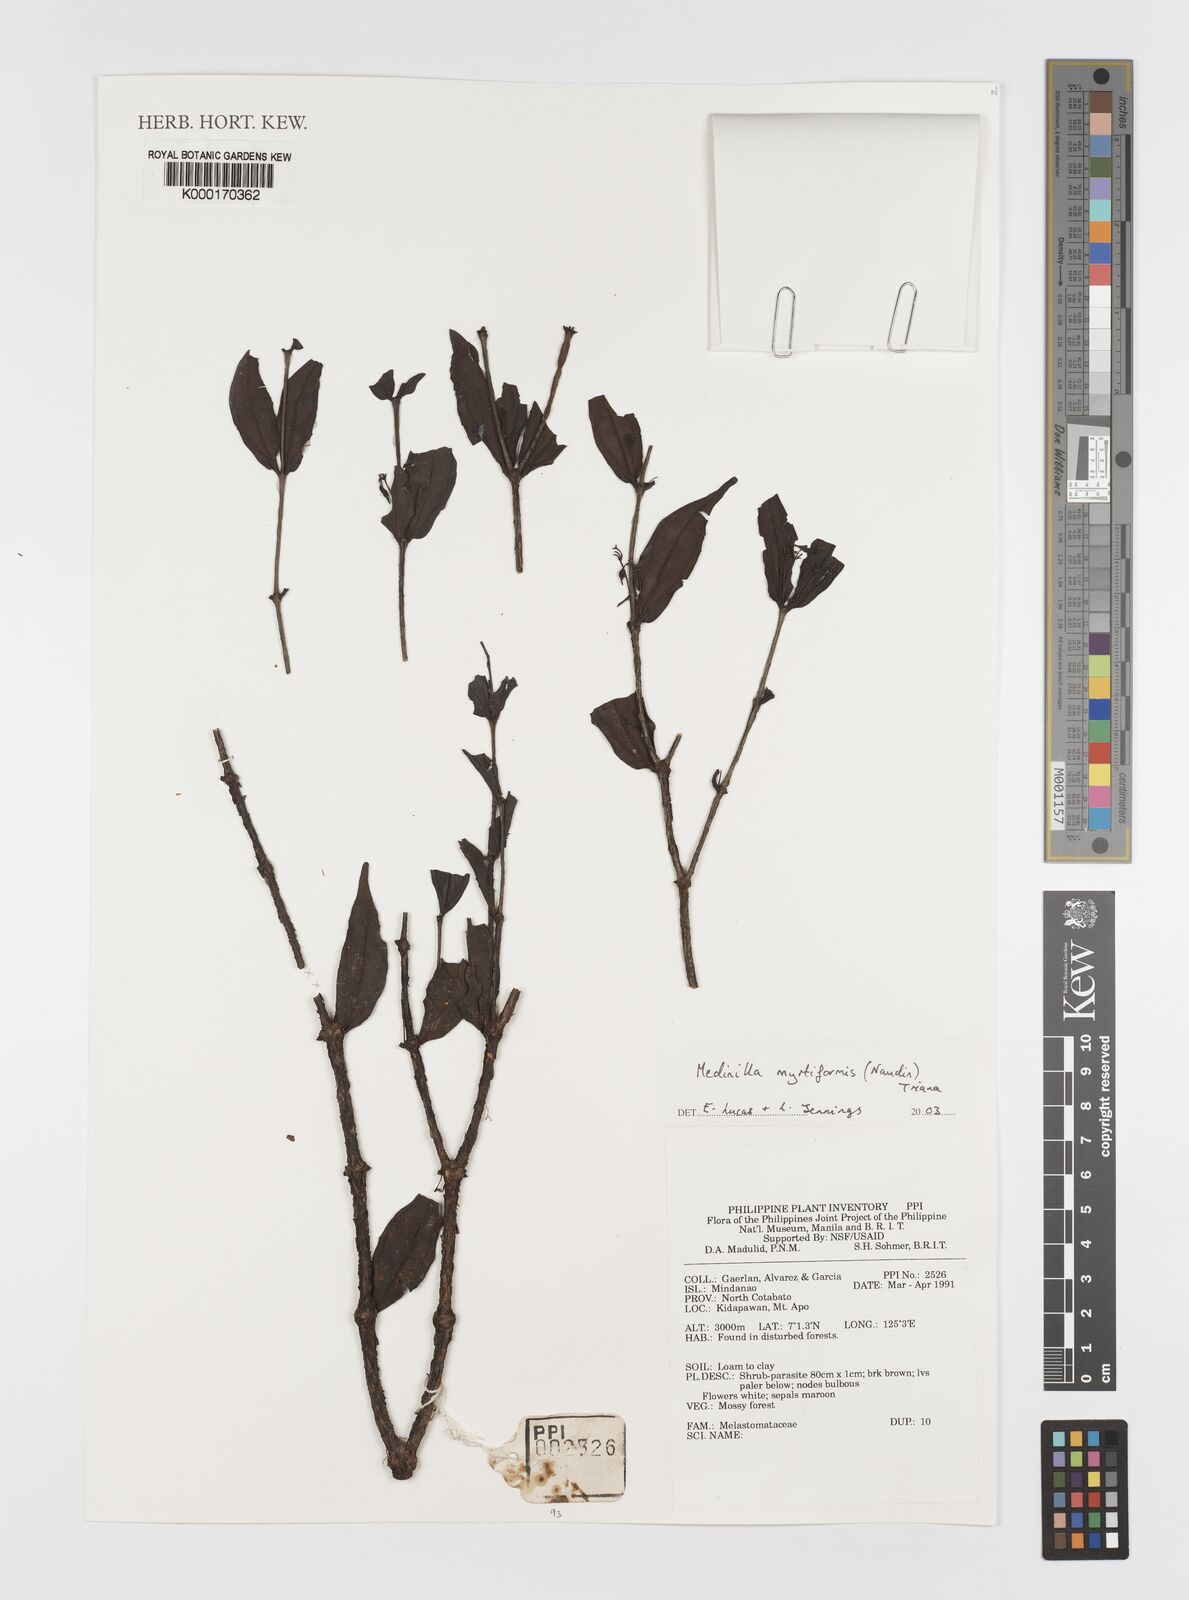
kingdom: Plantae
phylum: Tracheophyta
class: Magnoliopsida
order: Myrtales
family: Melastomataceae
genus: Medinilla
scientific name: Medinilla myrtiformis
